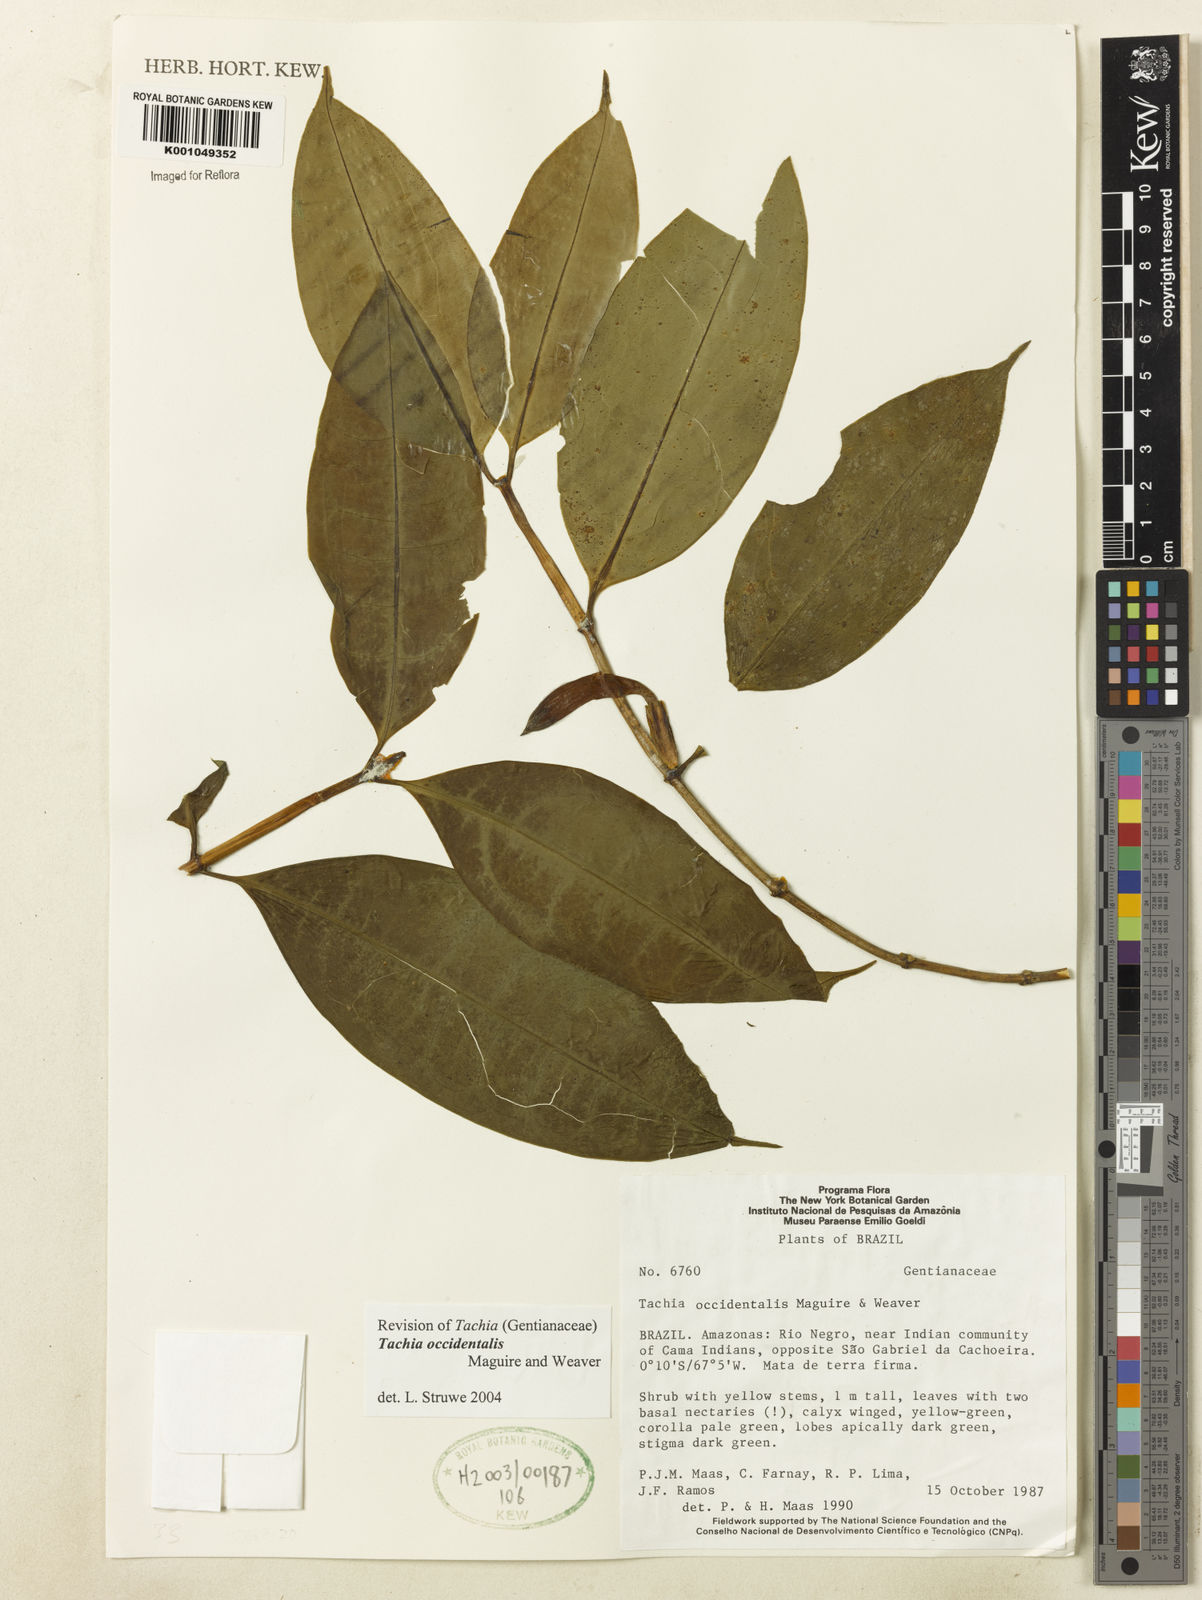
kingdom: Plantae
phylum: Tracheophyta
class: Magnoliopsida
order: Gentianales
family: Gentianaceae
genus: Tachia
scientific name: Tachia orientalis
